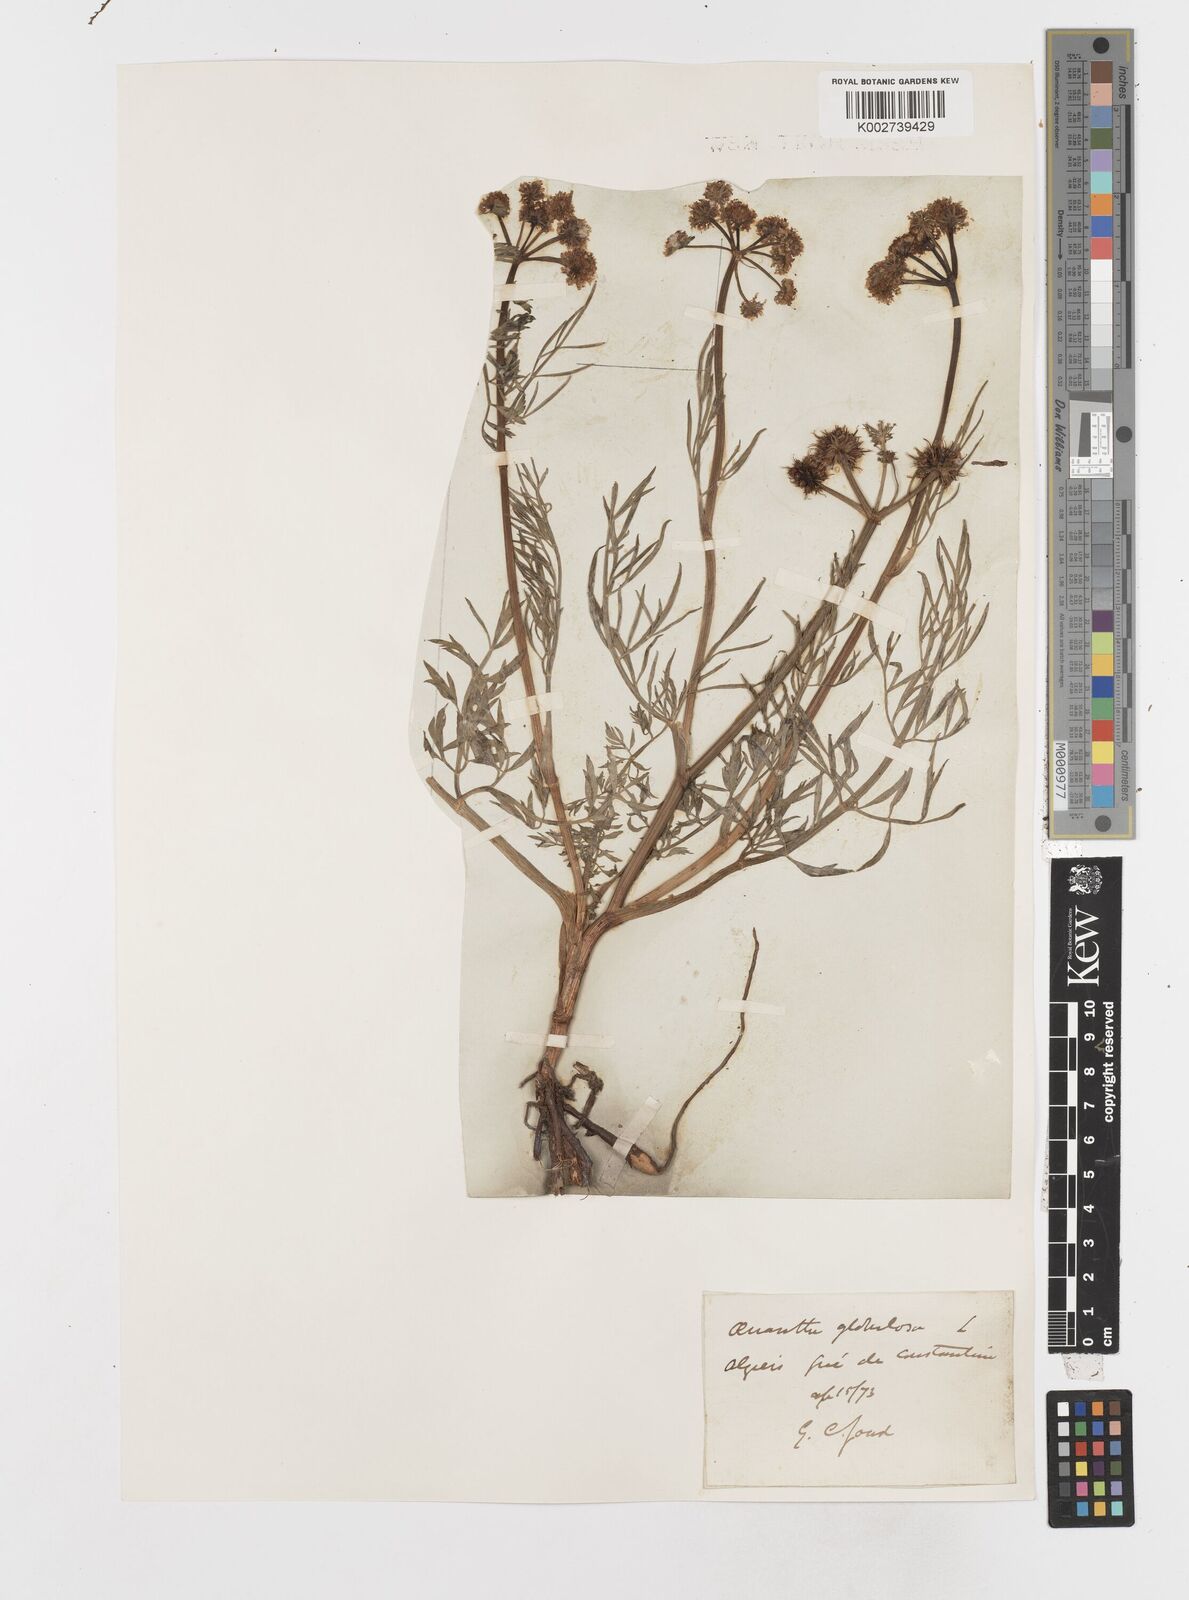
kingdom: Plantae
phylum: Tracheophyta
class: Magnoliopsida
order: Apiales
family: Apiaceae
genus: Oenanthe
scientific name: Oenanthe globulosa
